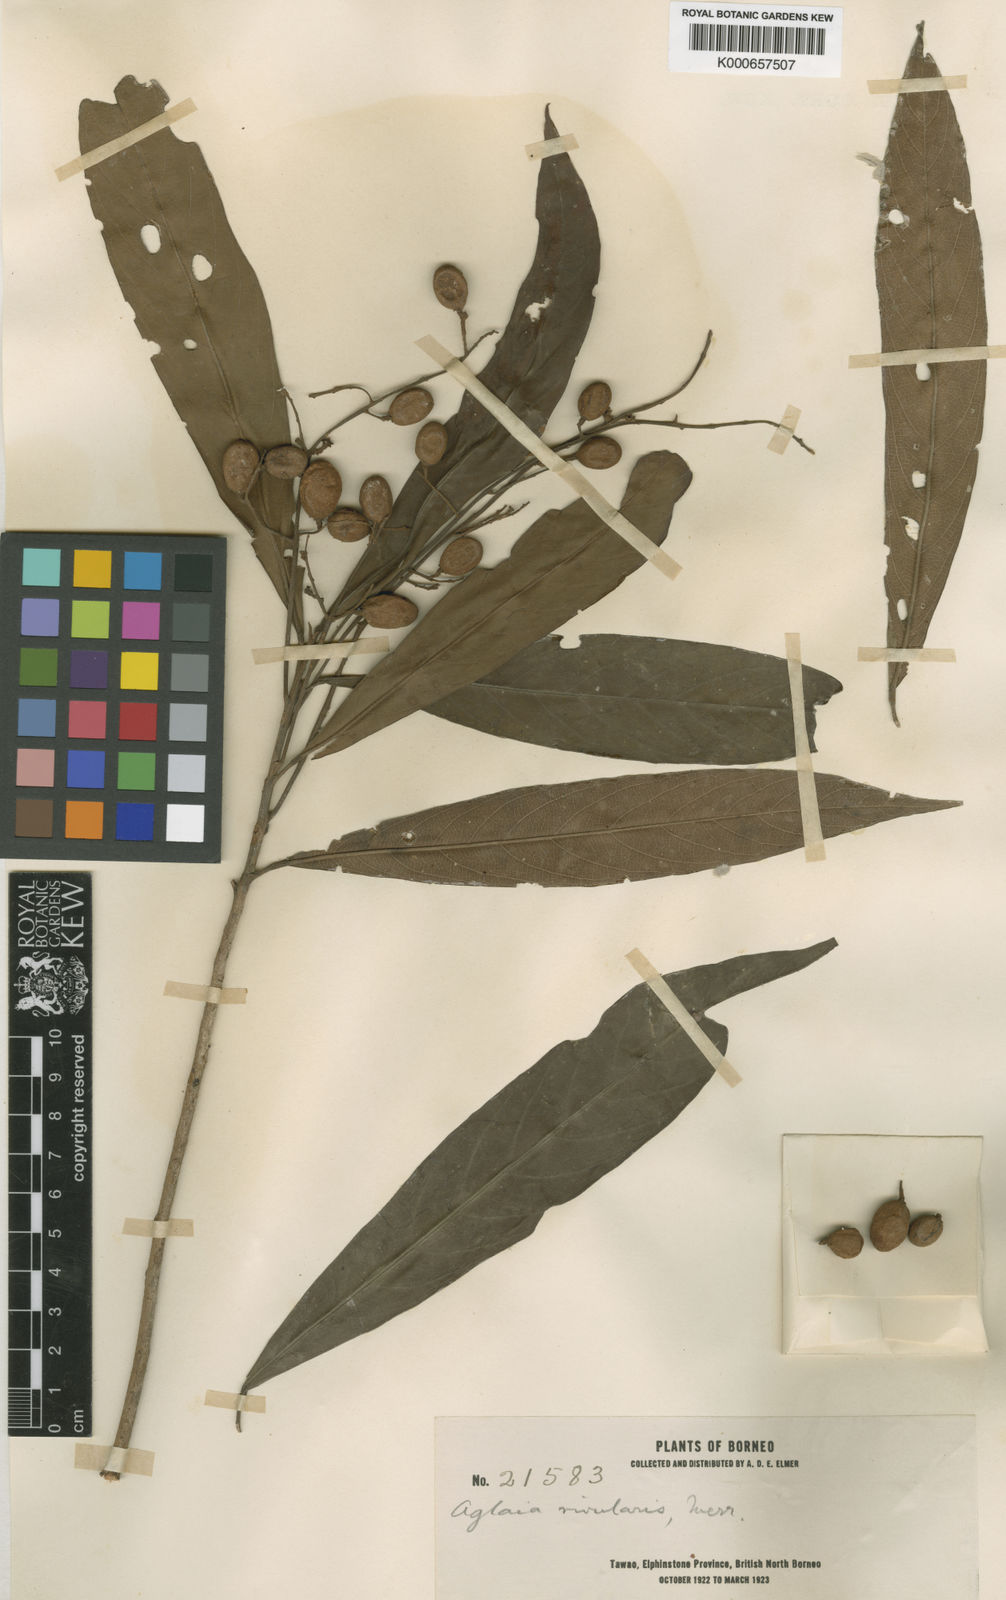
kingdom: Plantae
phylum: Tracheophyta
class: Magnoliopsida
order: Sapindales
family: Meliaceae
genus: Aglaia
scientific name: Aglaia rivularis
